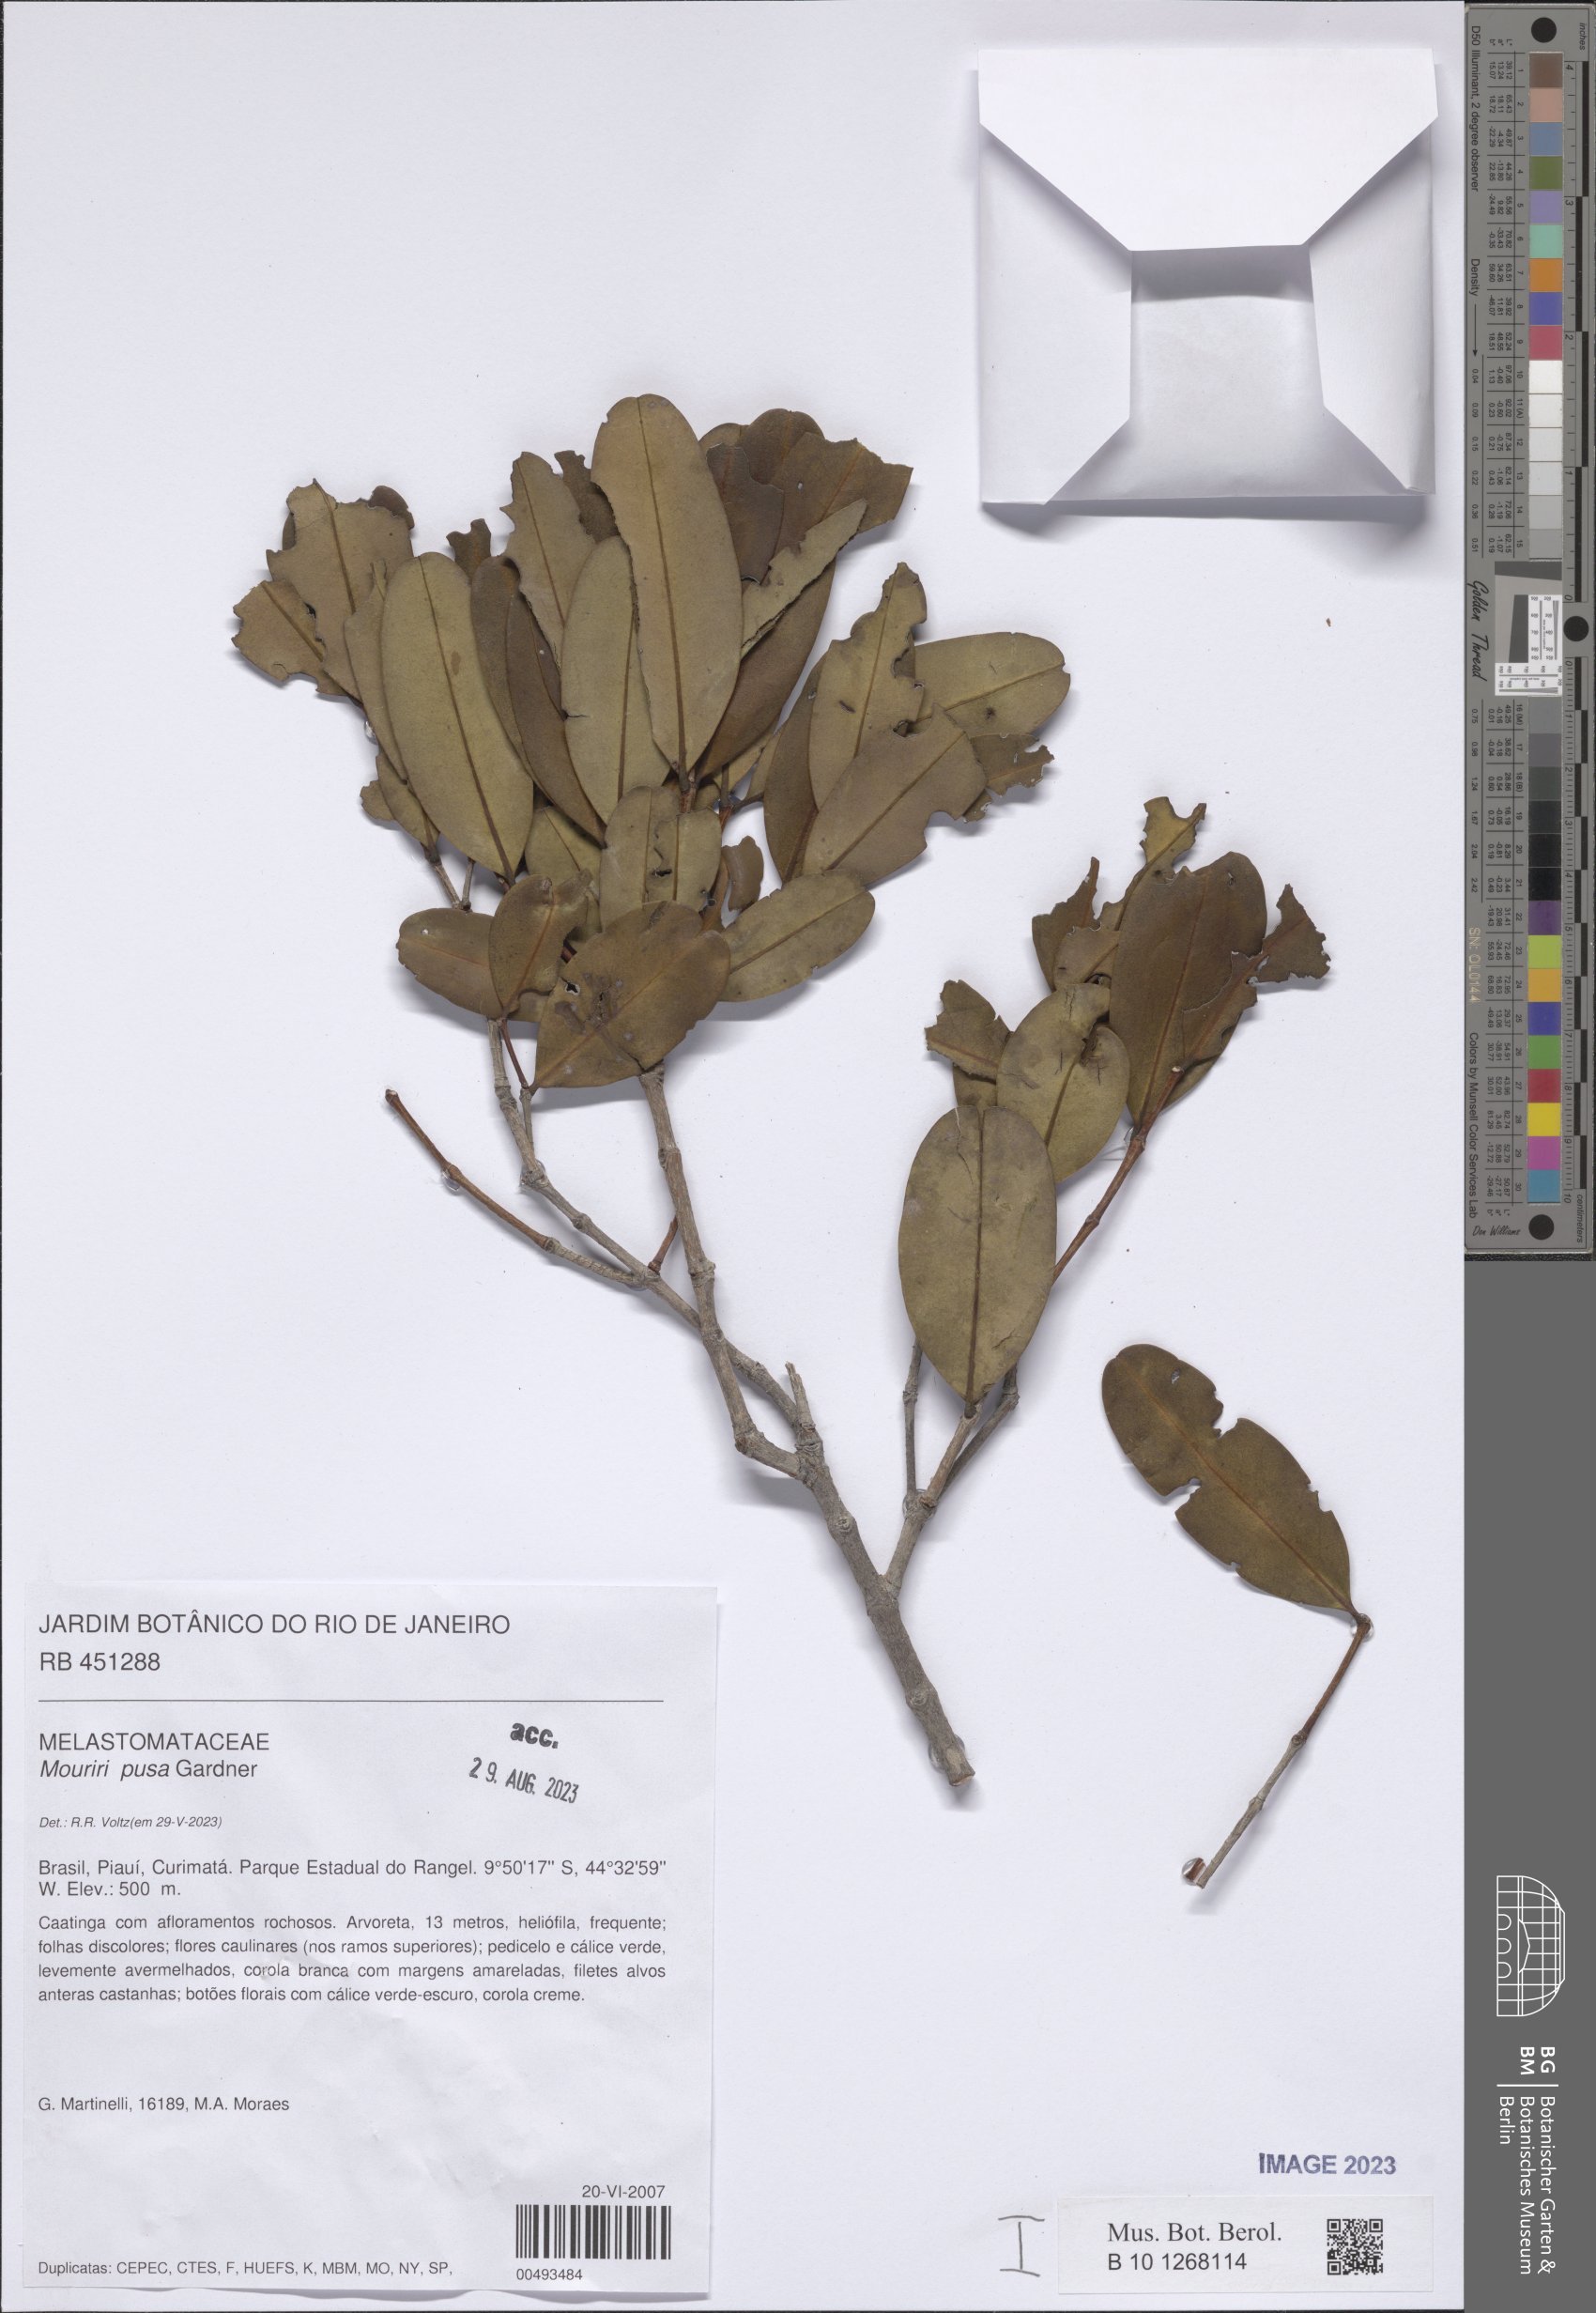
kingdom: Plantae
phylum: Tracheophyta
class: Magnoliopsida
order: Myrtales
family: Melastomataceae
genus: Mouriri
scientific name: Mouriri pusa
